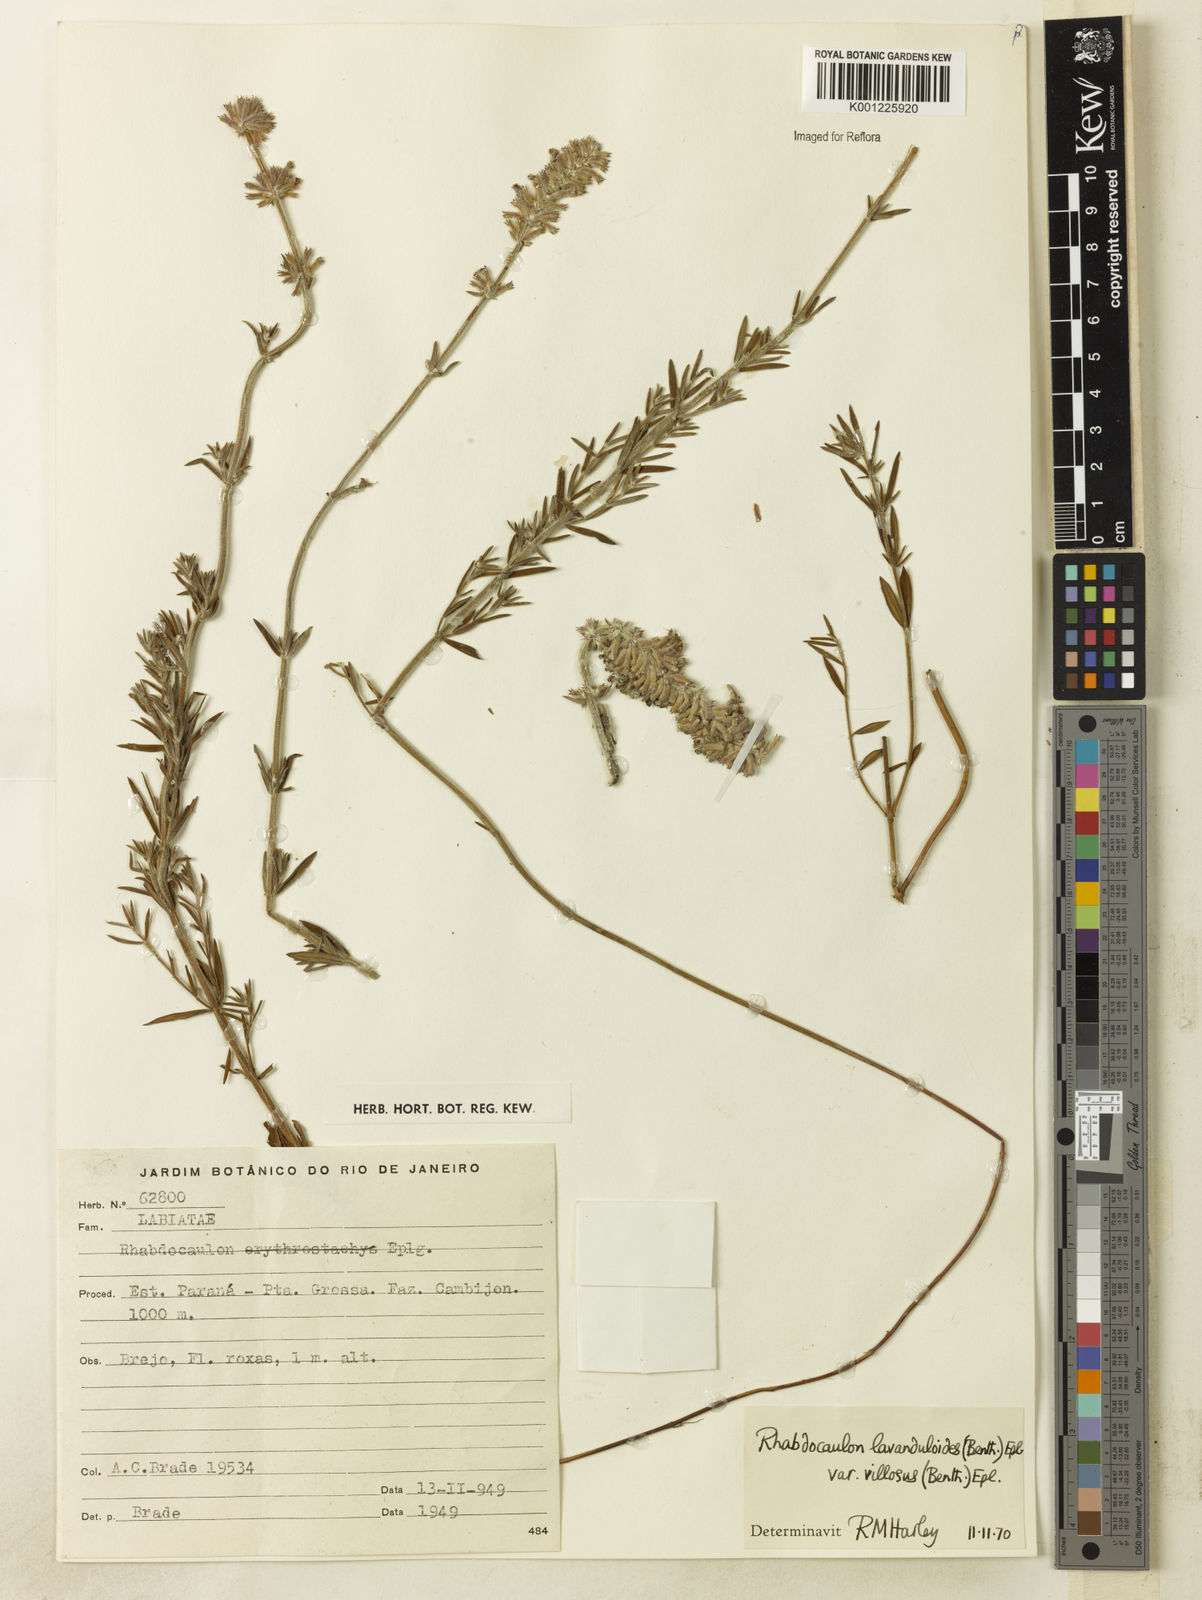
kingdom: Plantae
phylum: Tracheophyta
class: Magnoliopsida
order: Lamiales
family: Lamiaceae
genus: Rhabdocaulon
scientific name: Rhabdocaulon lavanduloides
